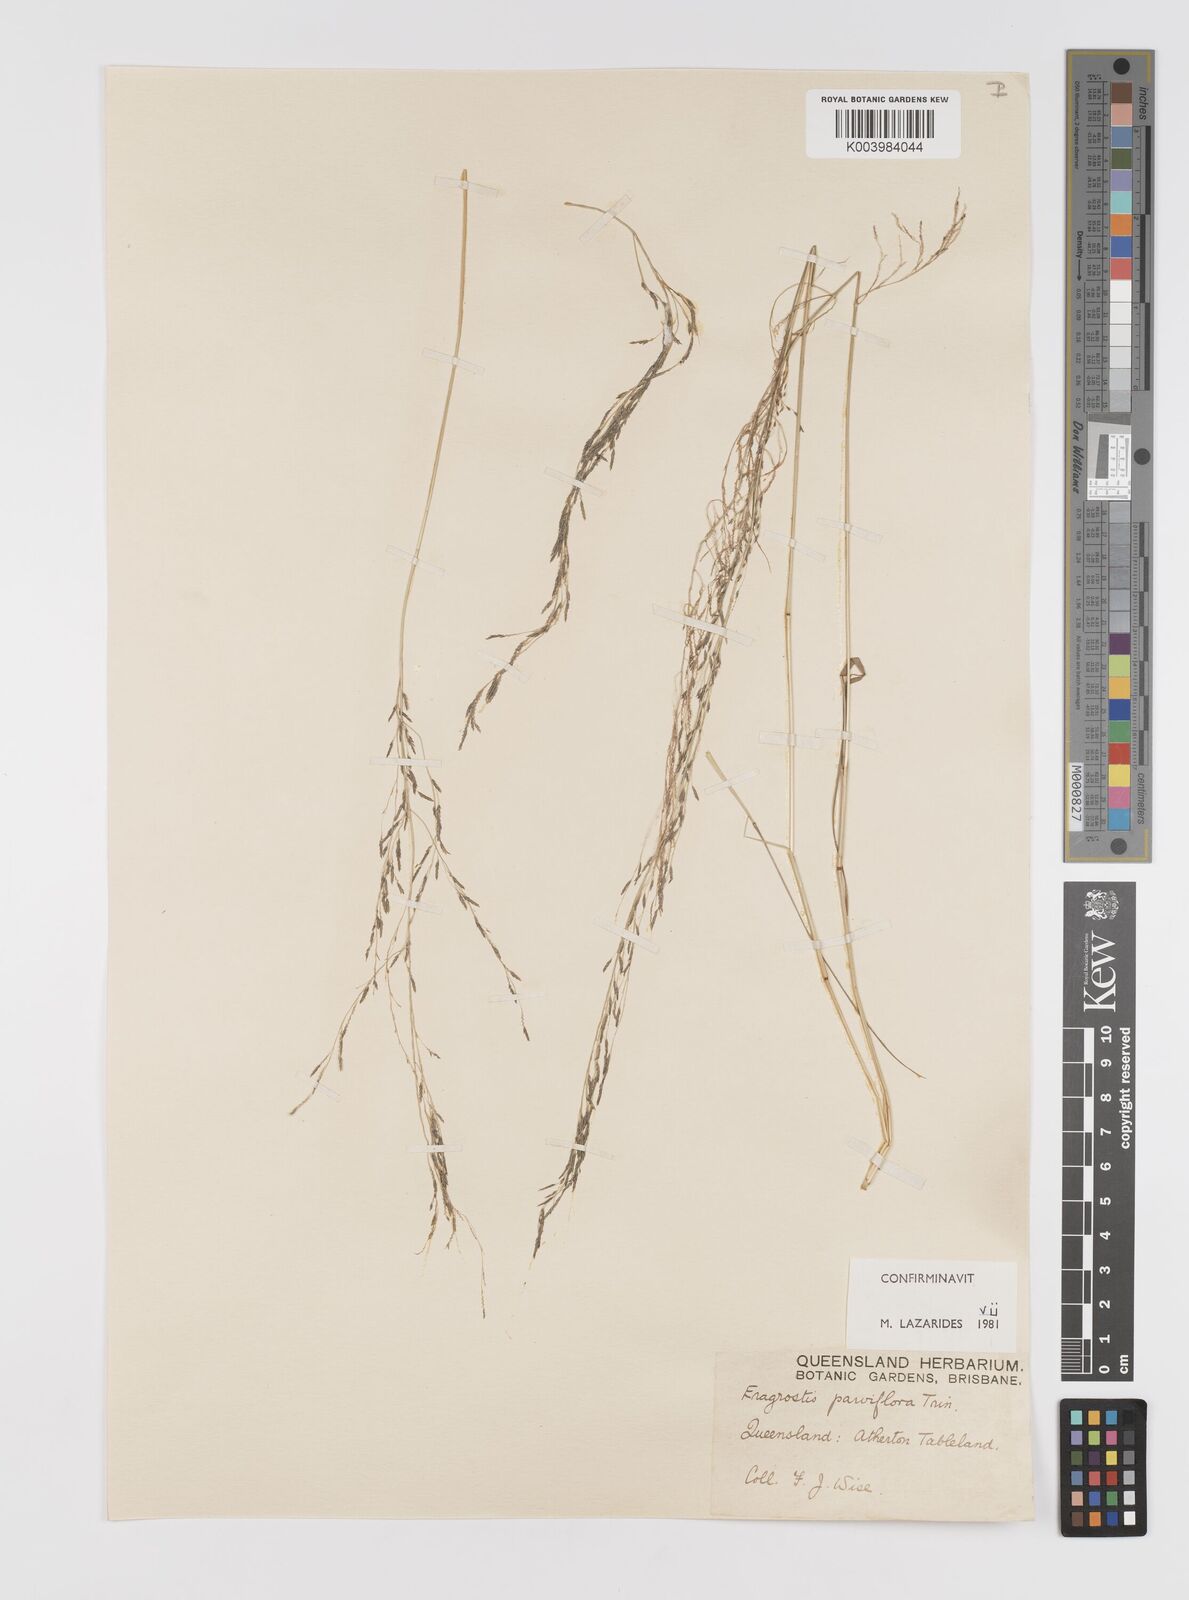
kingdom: Plantae
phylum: Tracheophyta
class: Liliopsida
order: Poales
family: Poaceae
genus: Eragrostis
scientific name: Eragrostis parviflora
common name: Weeping love-grass
